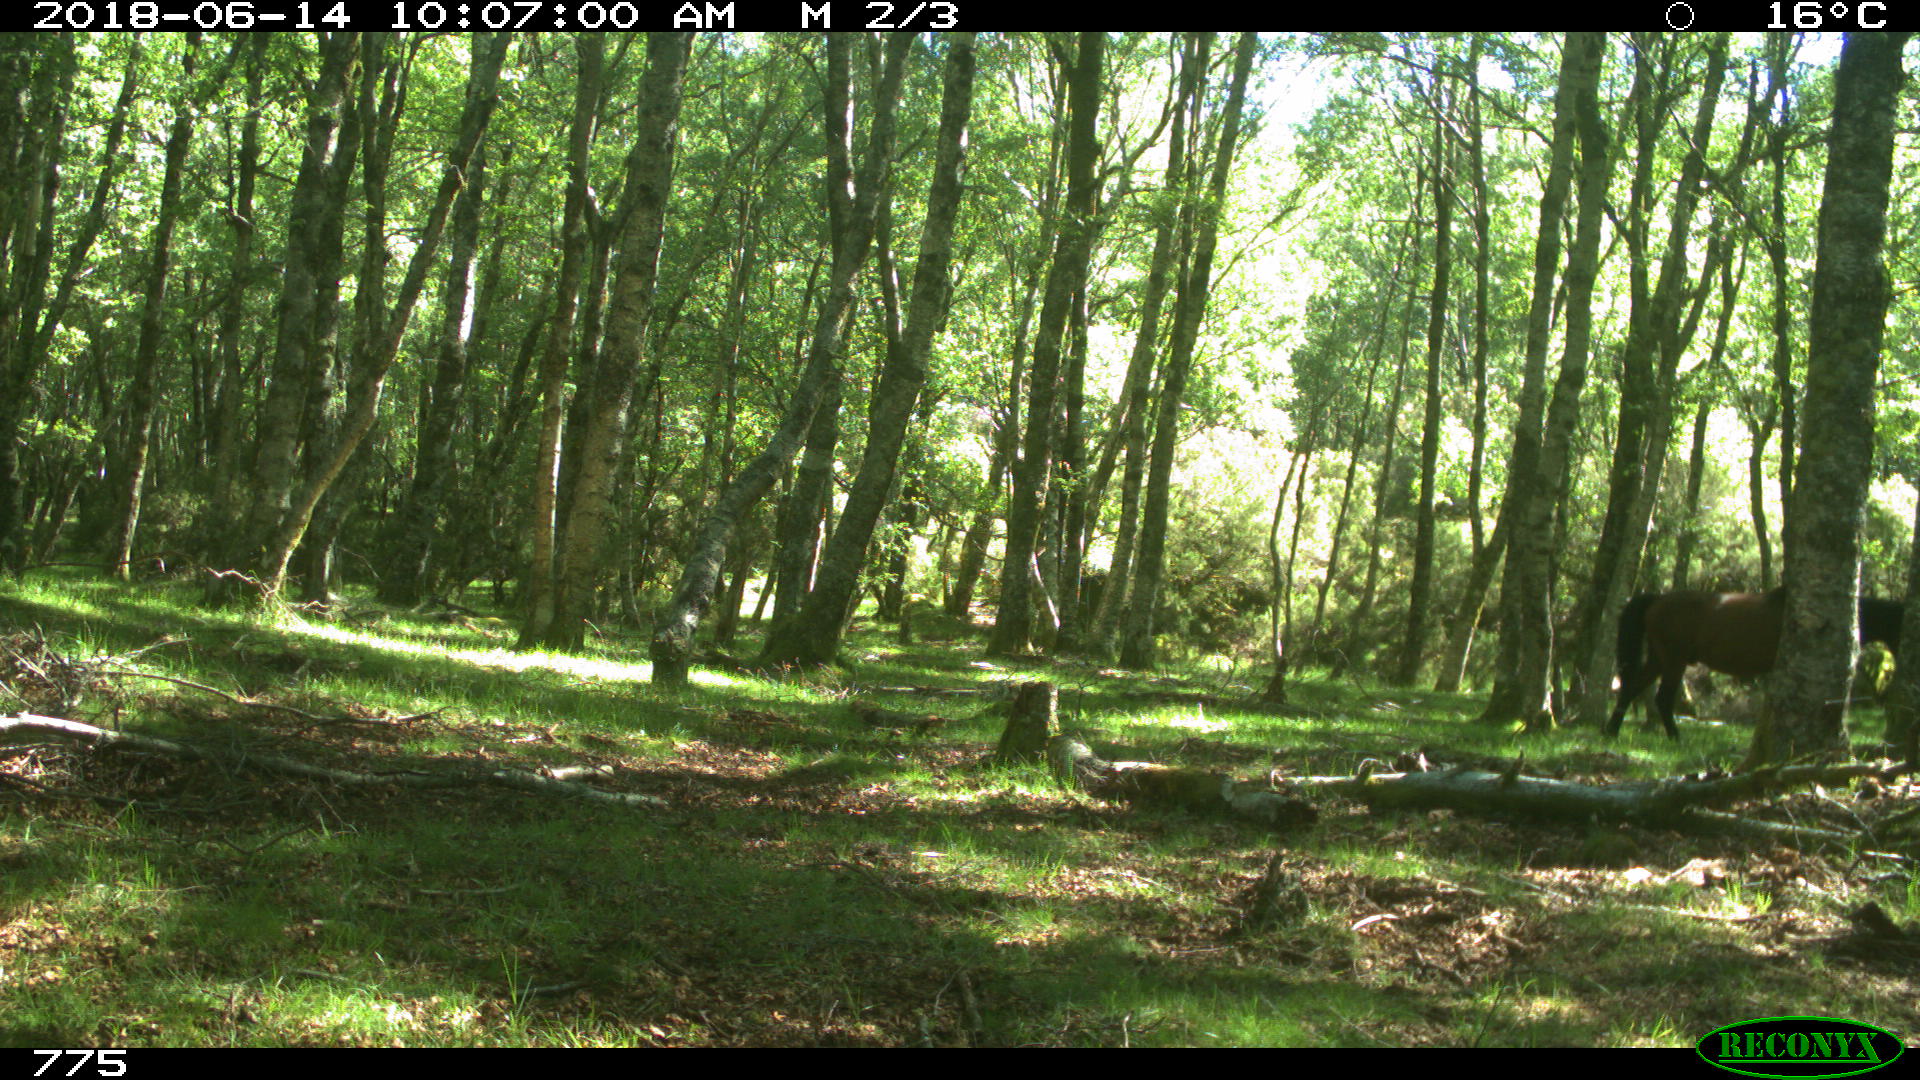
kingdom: Animalia
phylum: Chordata
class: Mammalia
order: Perissodactyla
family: Equidae
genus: Equus
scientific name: Equus caballus
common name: Horse
